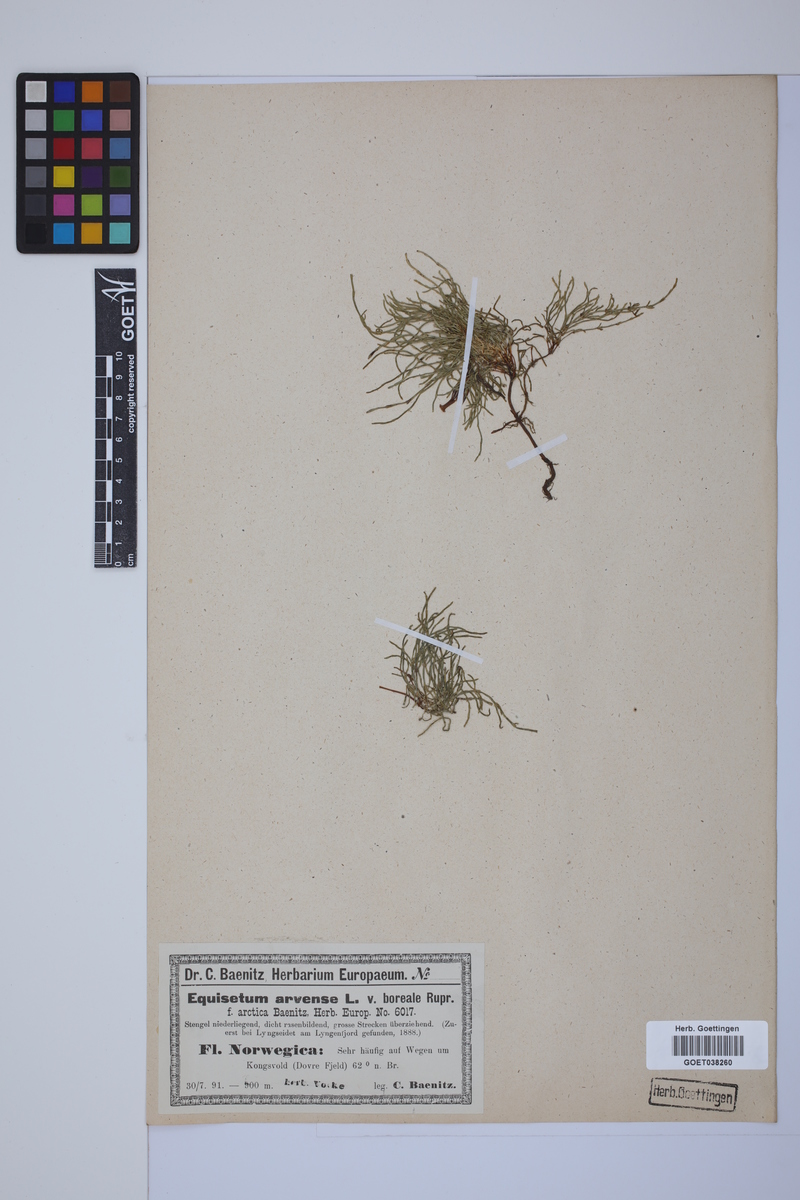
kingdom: Plantae
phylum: Tracheophyta
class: Polypodiopsida
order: Equisetales
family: Equisetaceae
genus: Equisetum
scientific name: Equisetum arvense
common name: Field horsetail
